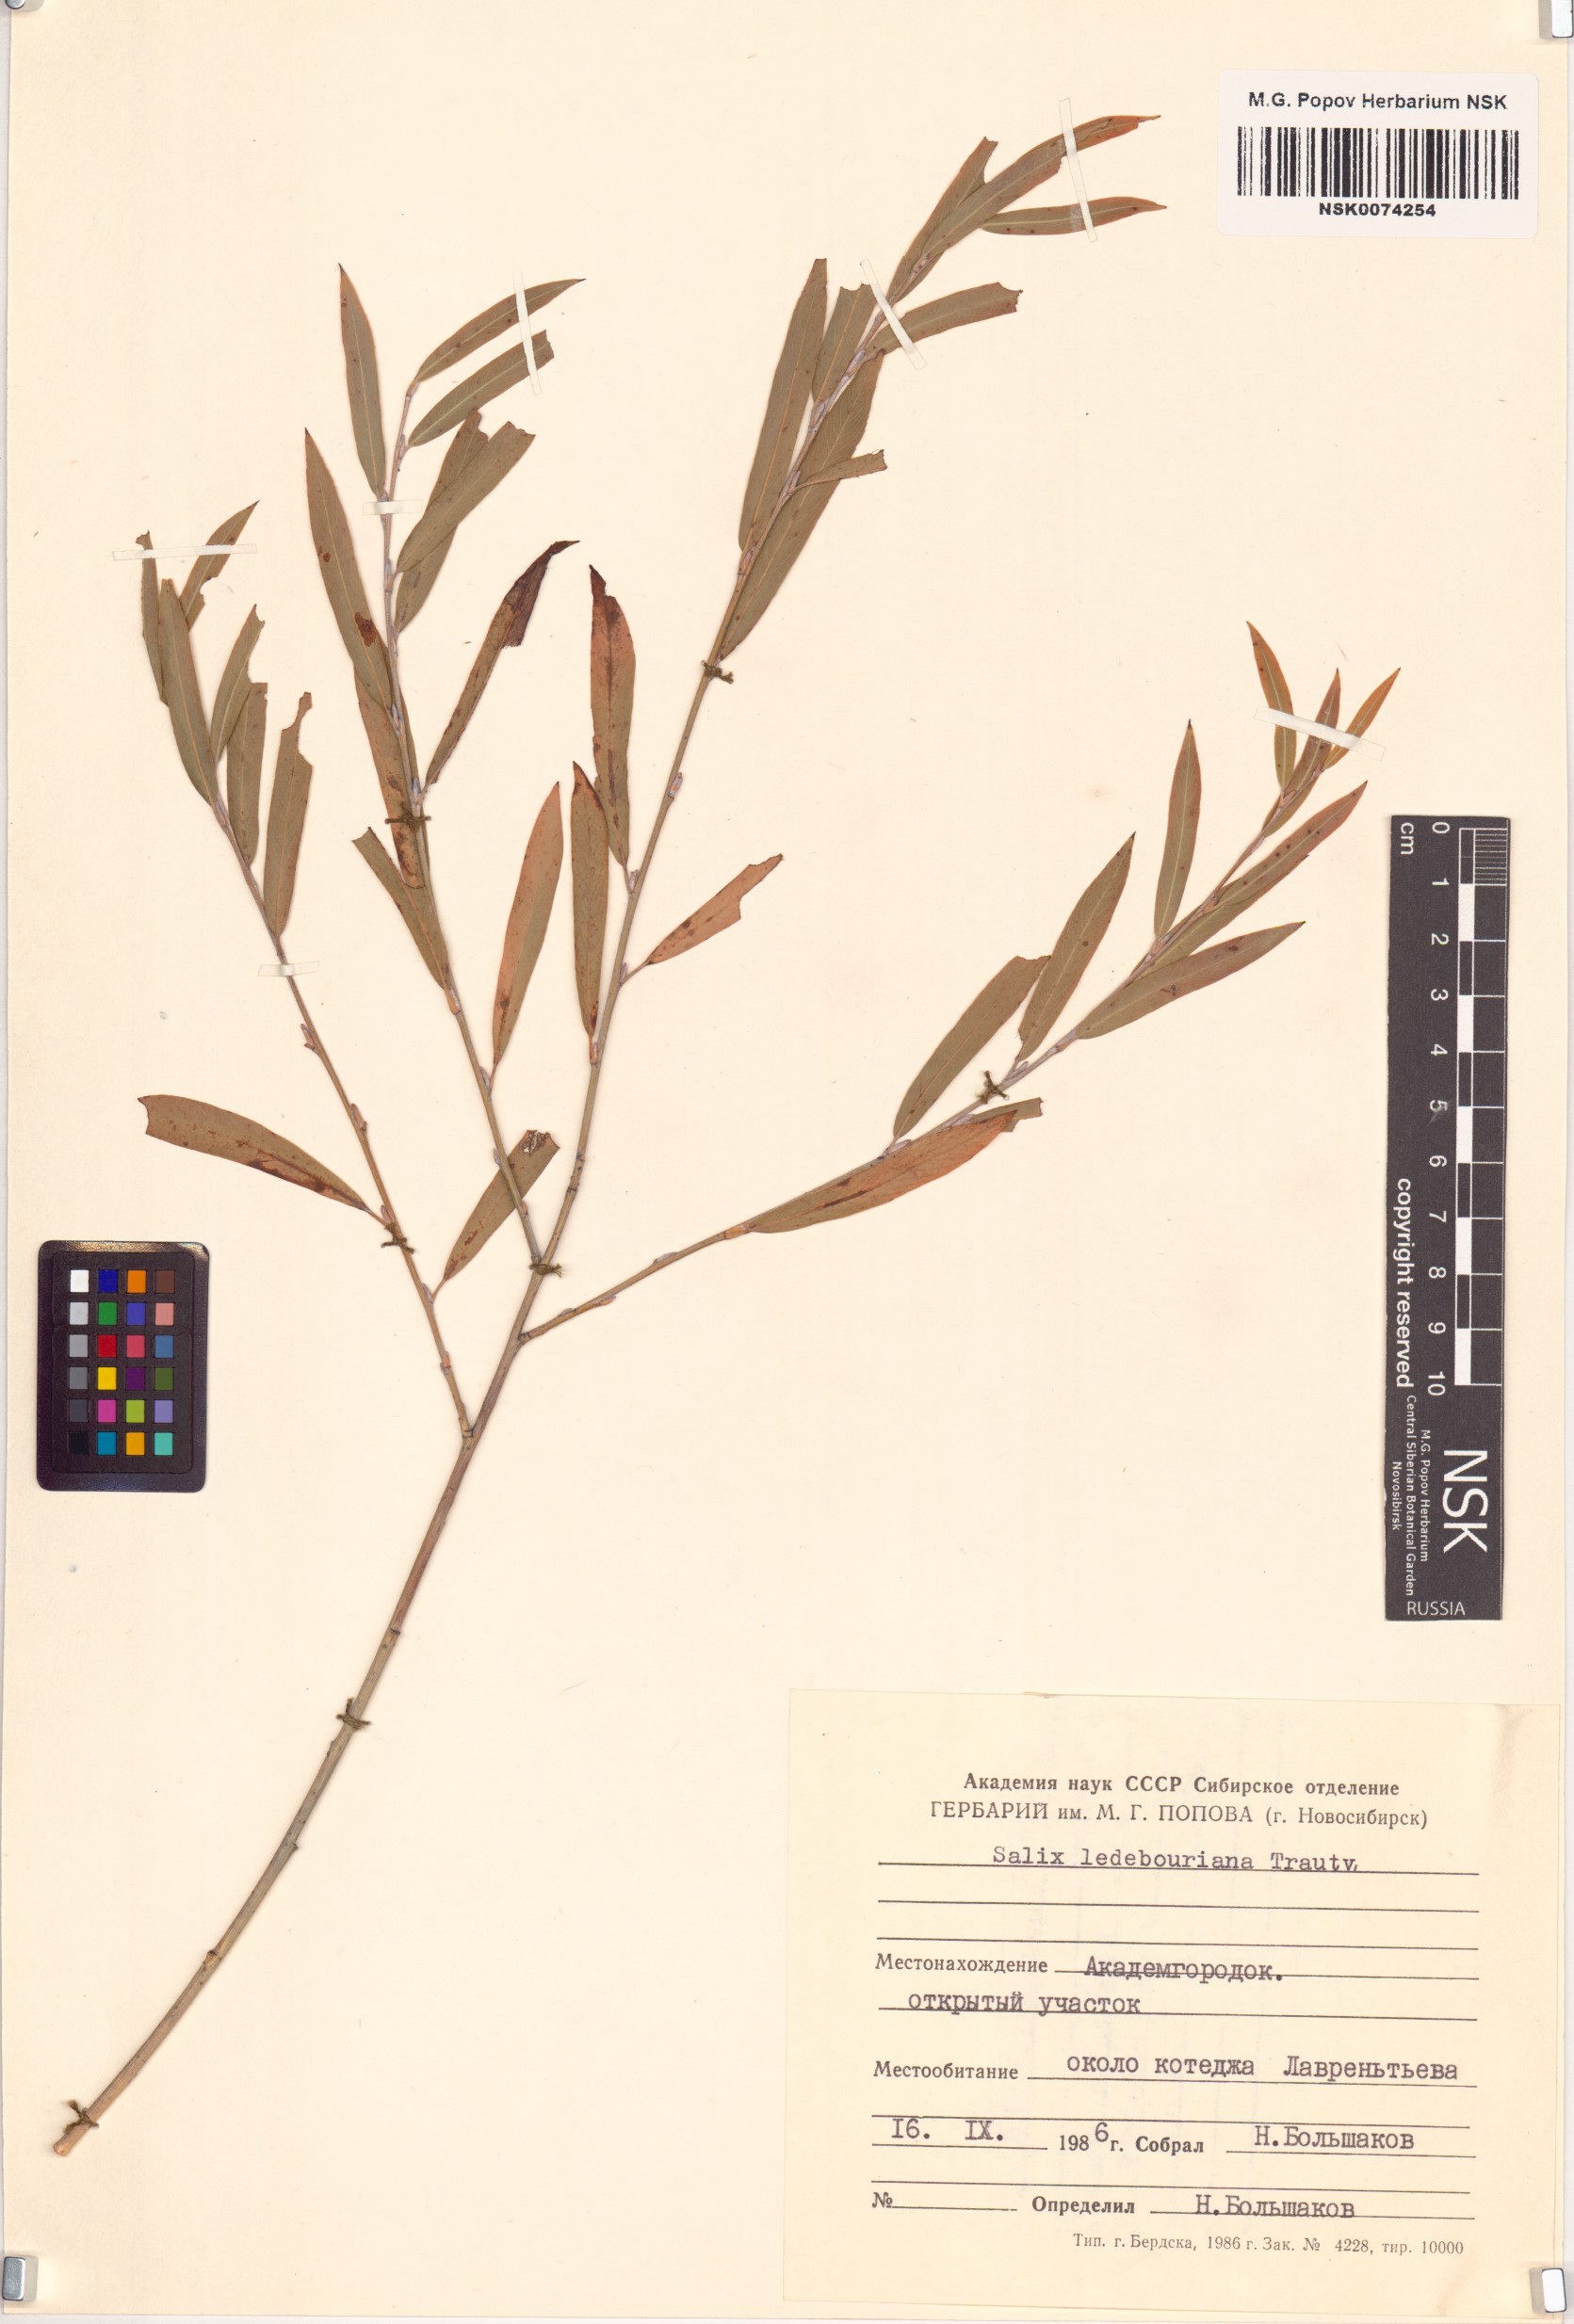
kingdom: Plantae
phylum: Tracheophyta
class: Magnoliopsida
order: Malpighiales
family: Salicaceae
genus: Salix
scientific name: Salix ledebouriana
